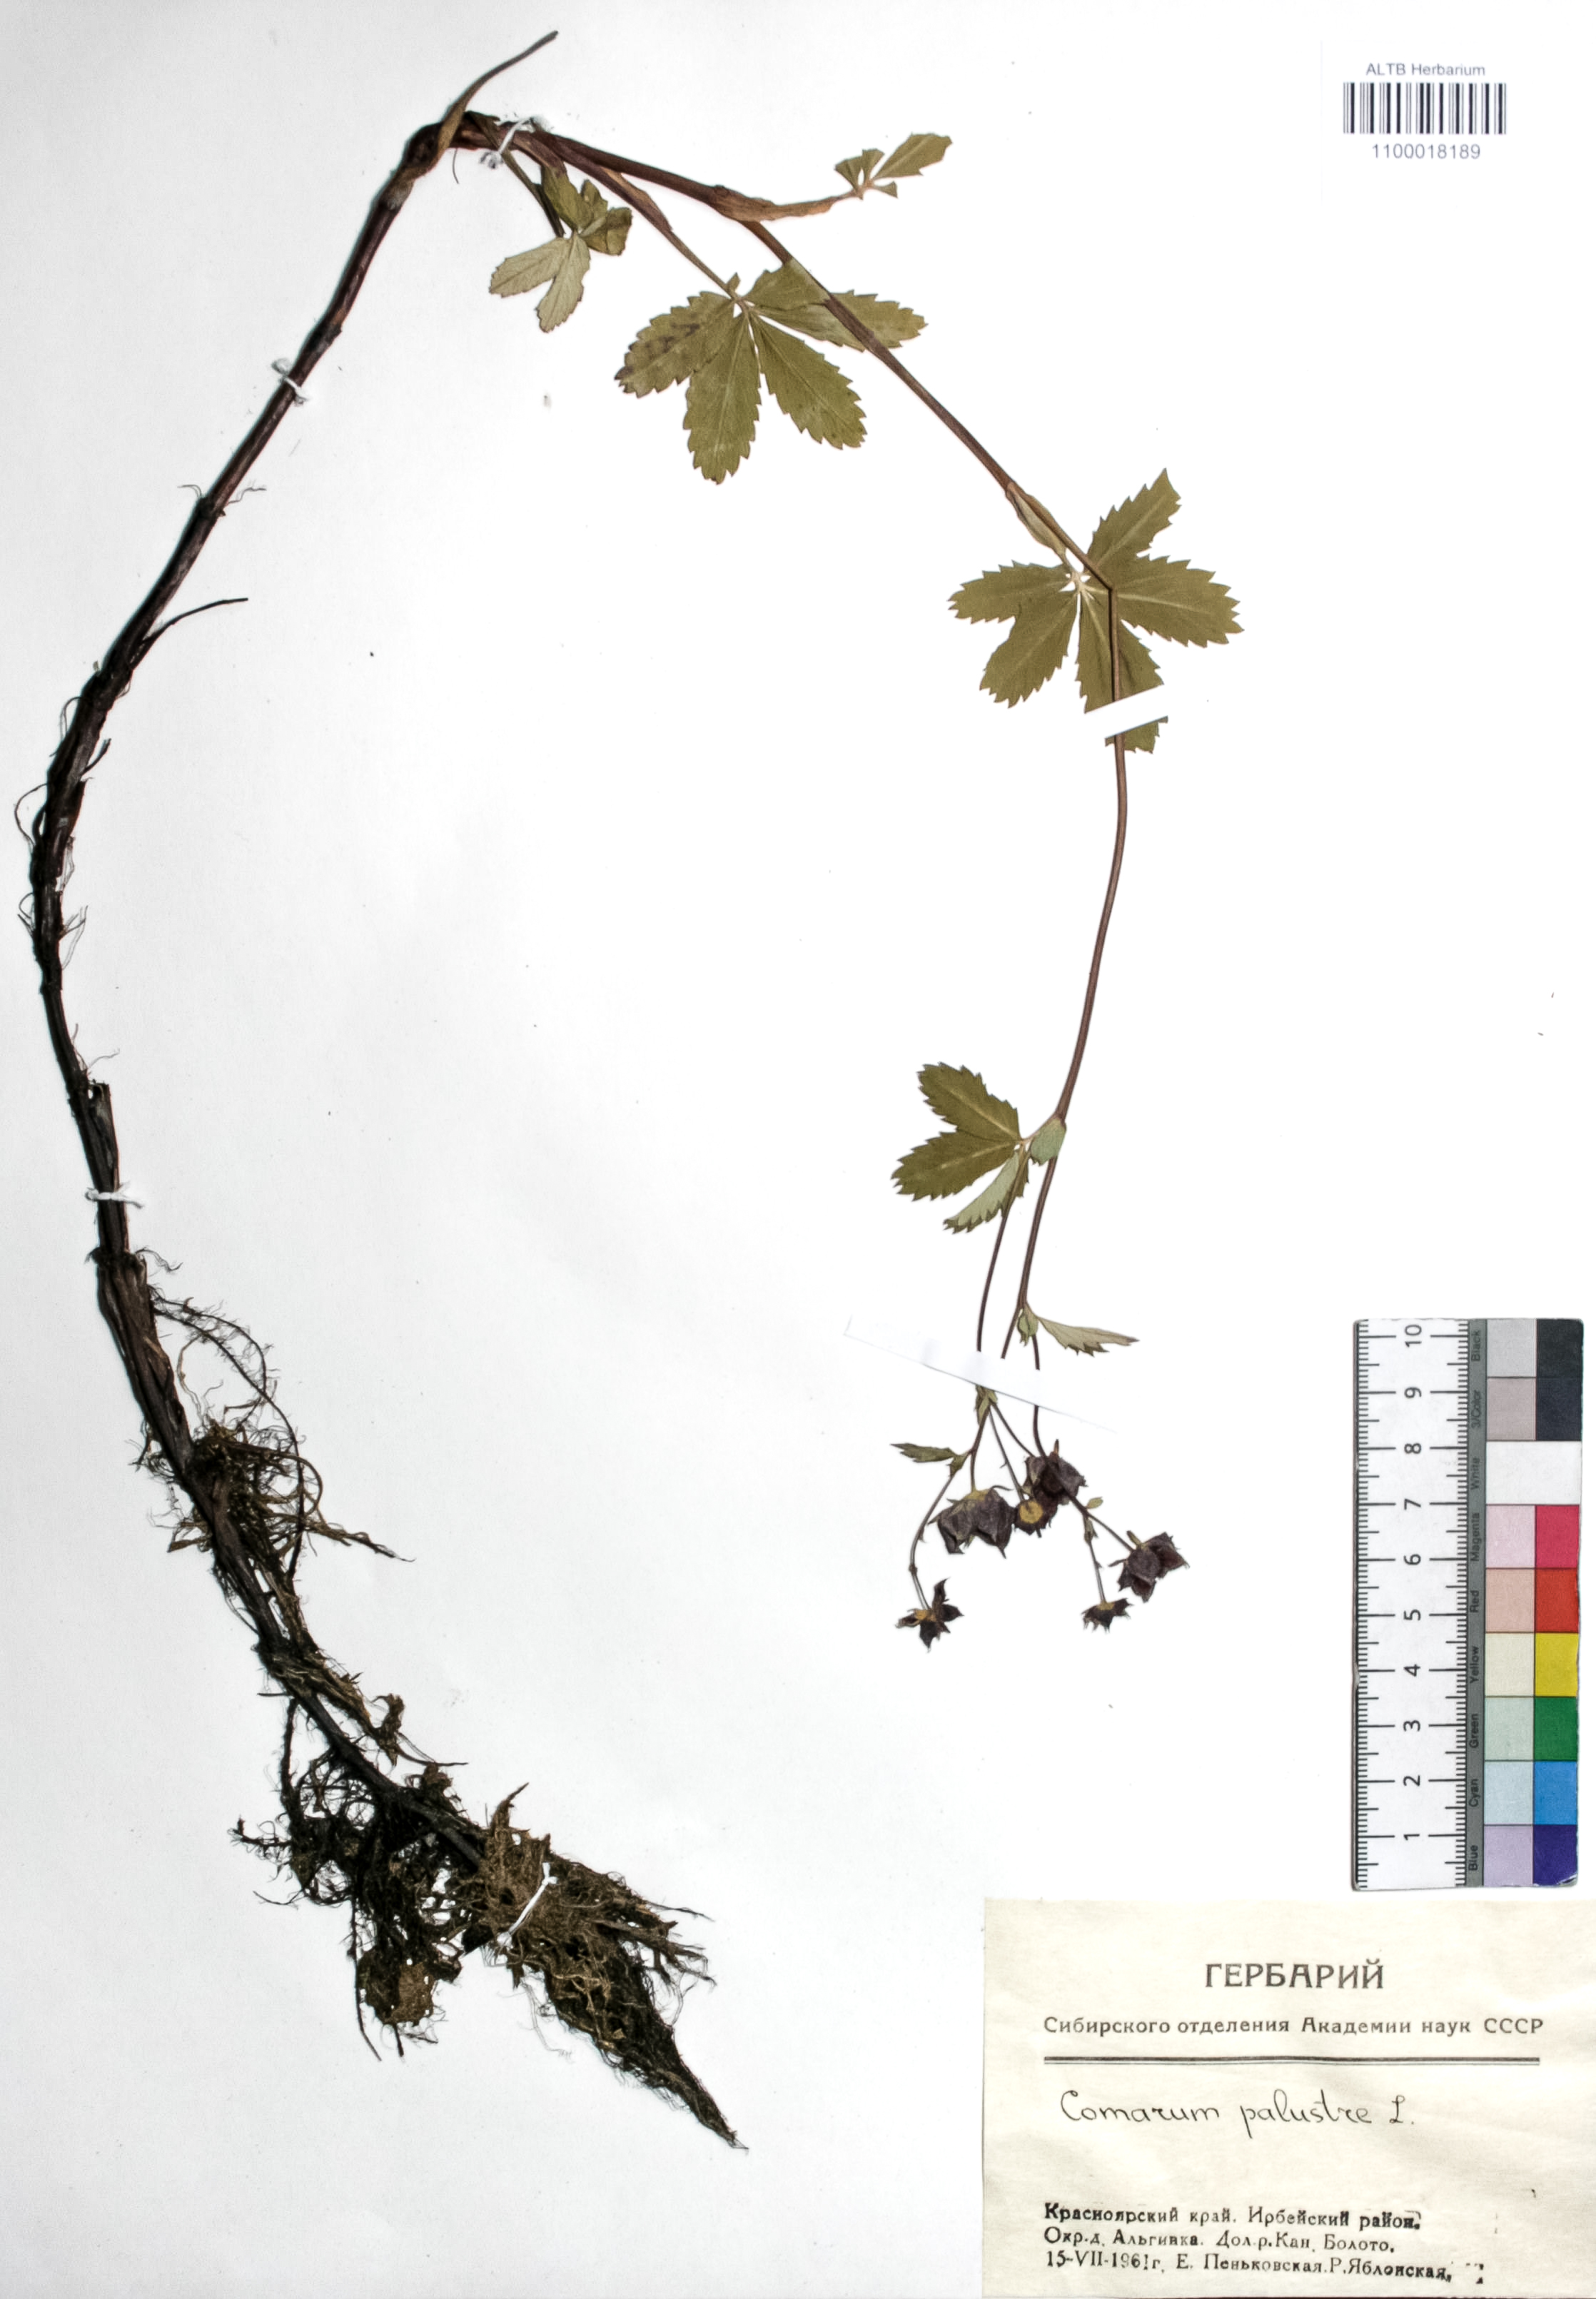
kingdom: Plantae
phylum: Tracheophyta
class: Magnoliopsida
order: Rosales
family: Rosaceae
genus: Comarum
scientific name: Comarum palustre
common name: Marsh cinquefoil
